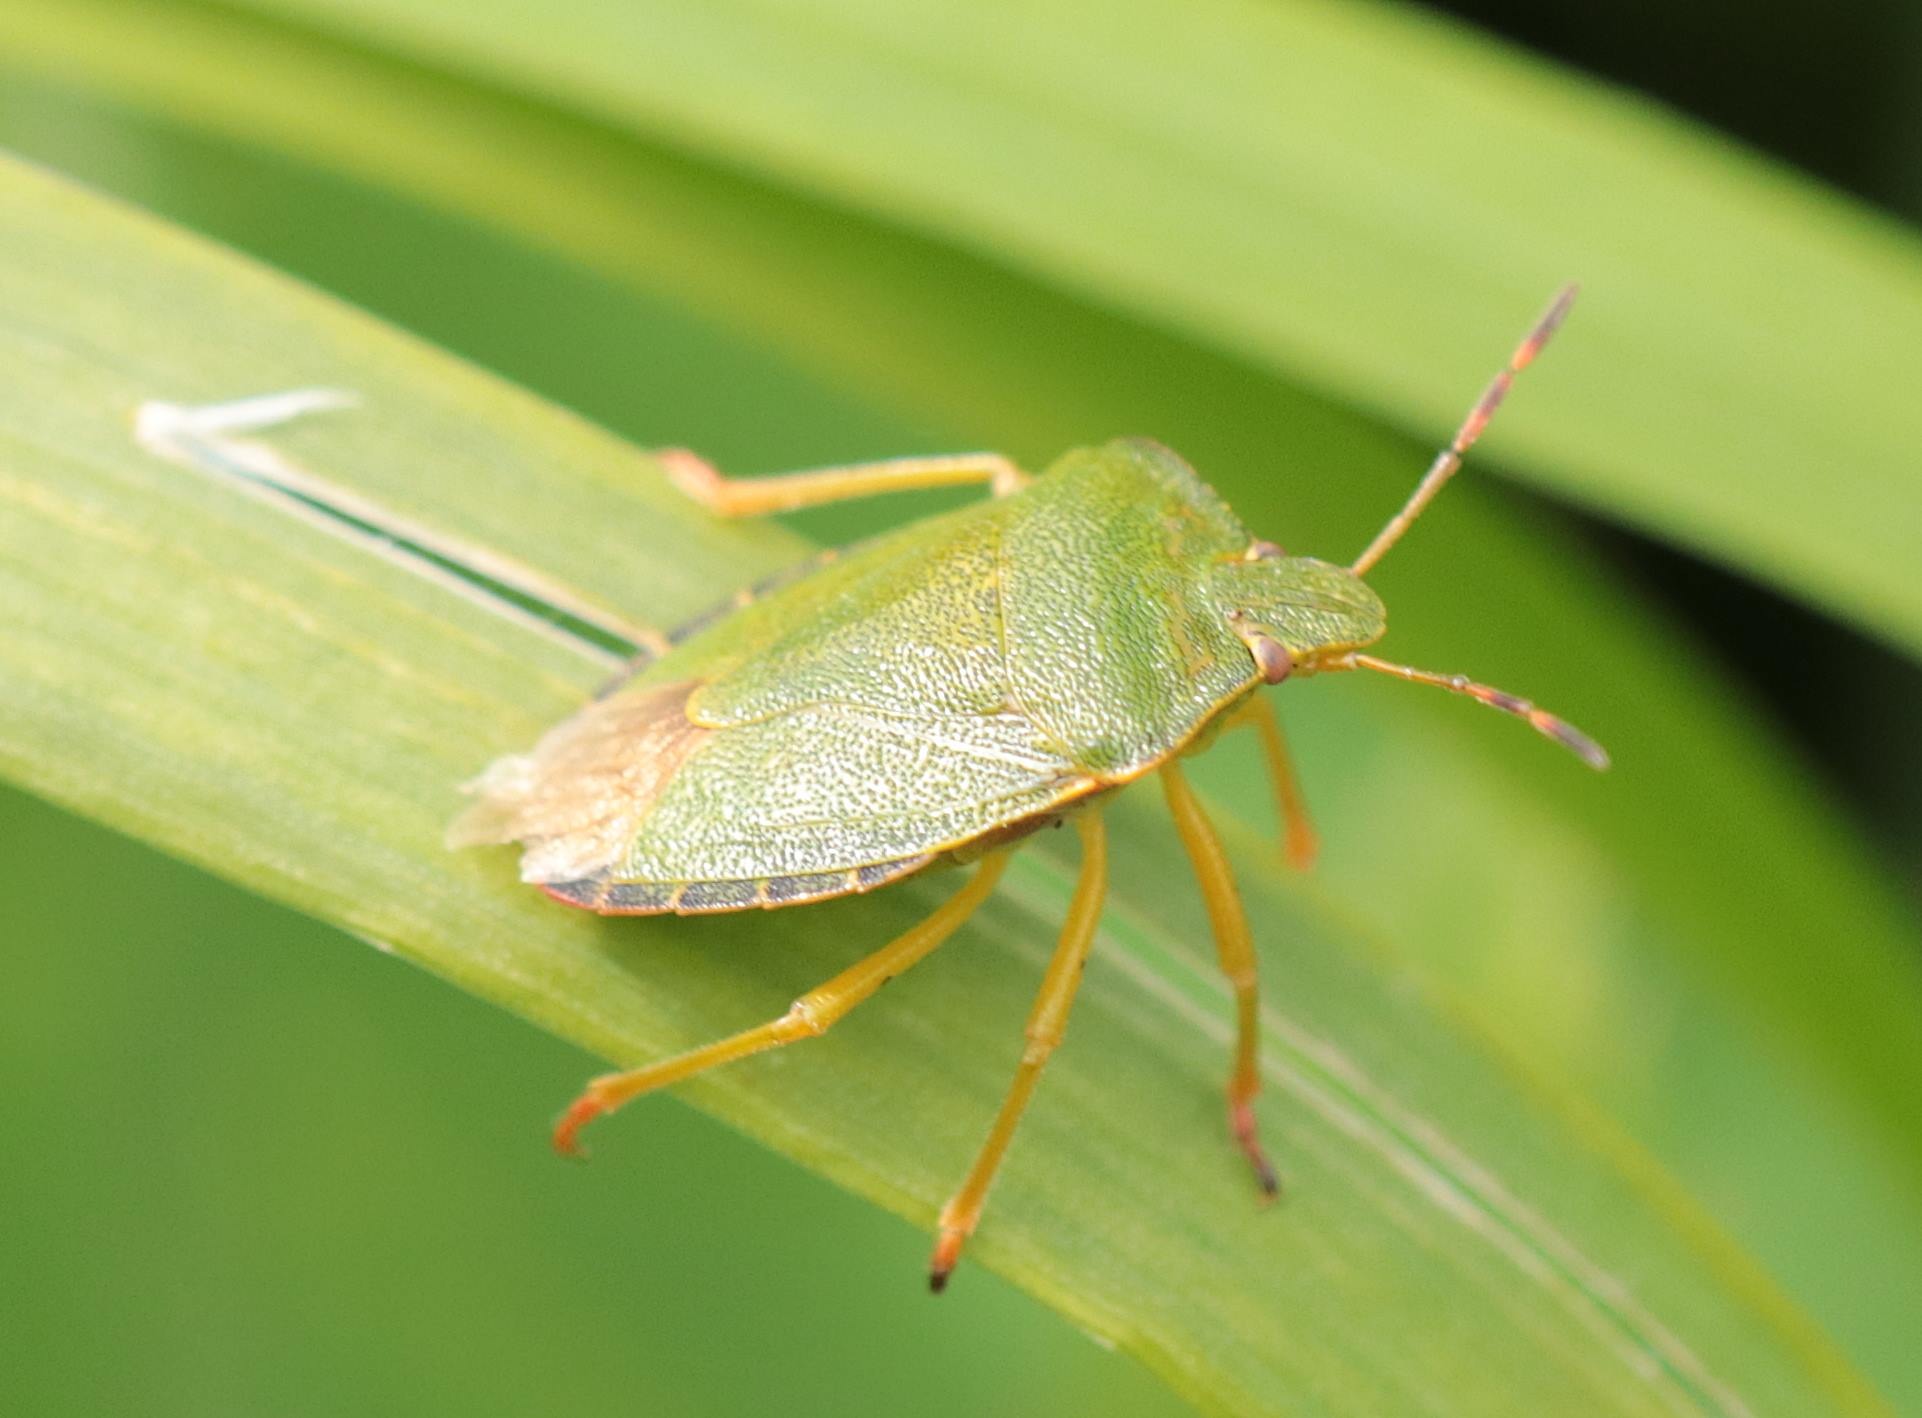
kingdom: Animalia
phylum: Arthropoda
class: Insecta
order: Hemiptera
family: Pentatomidae
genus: Palomena
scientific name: Palomena prasina
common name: Grøn bredtæge
